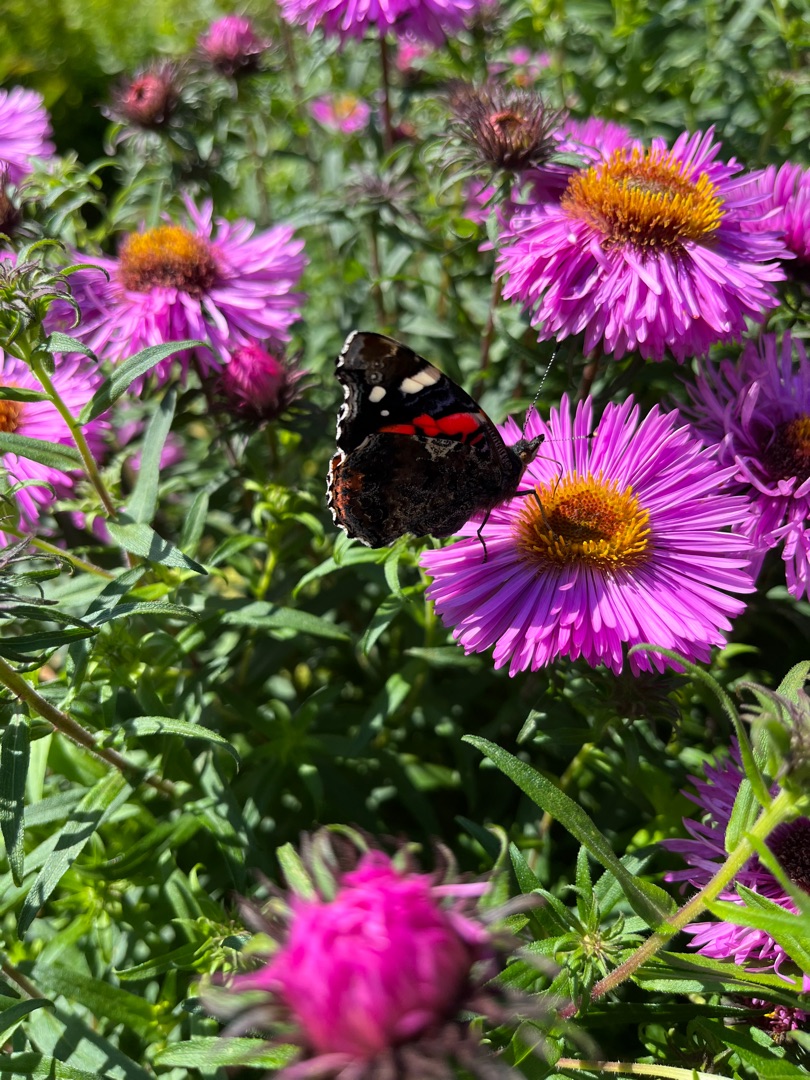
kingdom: Animalia
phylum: Arthropoda
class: Insecta
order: Lepidoptera
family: Nymphalidae
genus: Vanessa
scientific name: Vanessa atalanta
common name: Admiral
